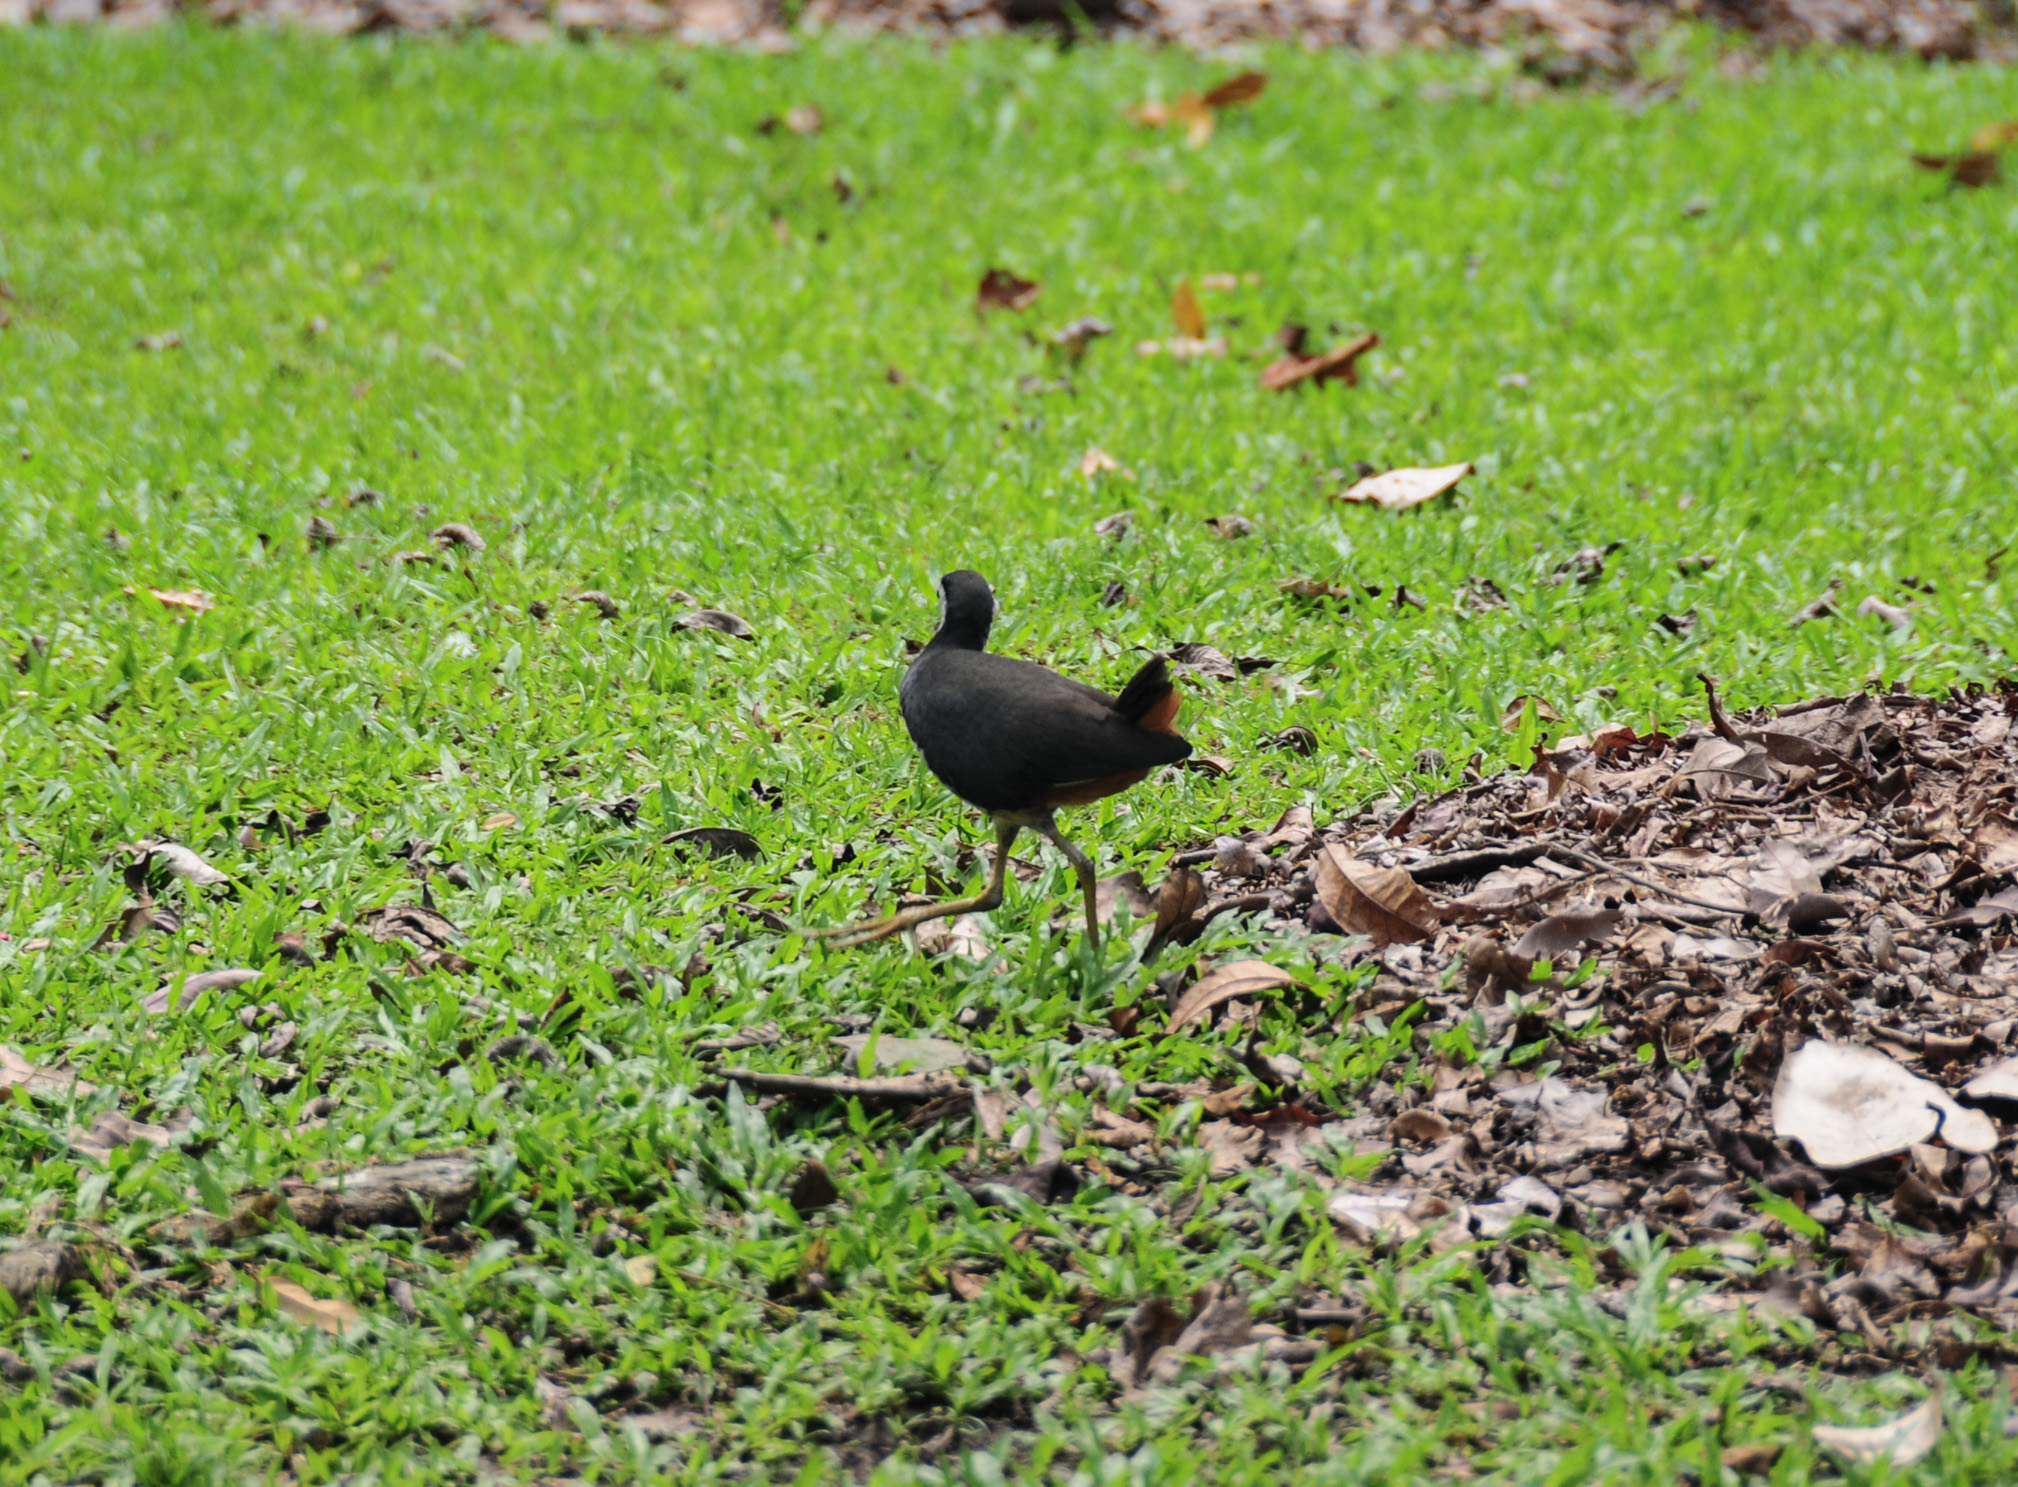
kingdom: Animalia
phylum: Chordata
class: Aves
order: Gruiformes
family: Rallidae
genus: Amaurornis
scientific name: Amaurornis phoenicurus
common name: White-breasted waterhen
